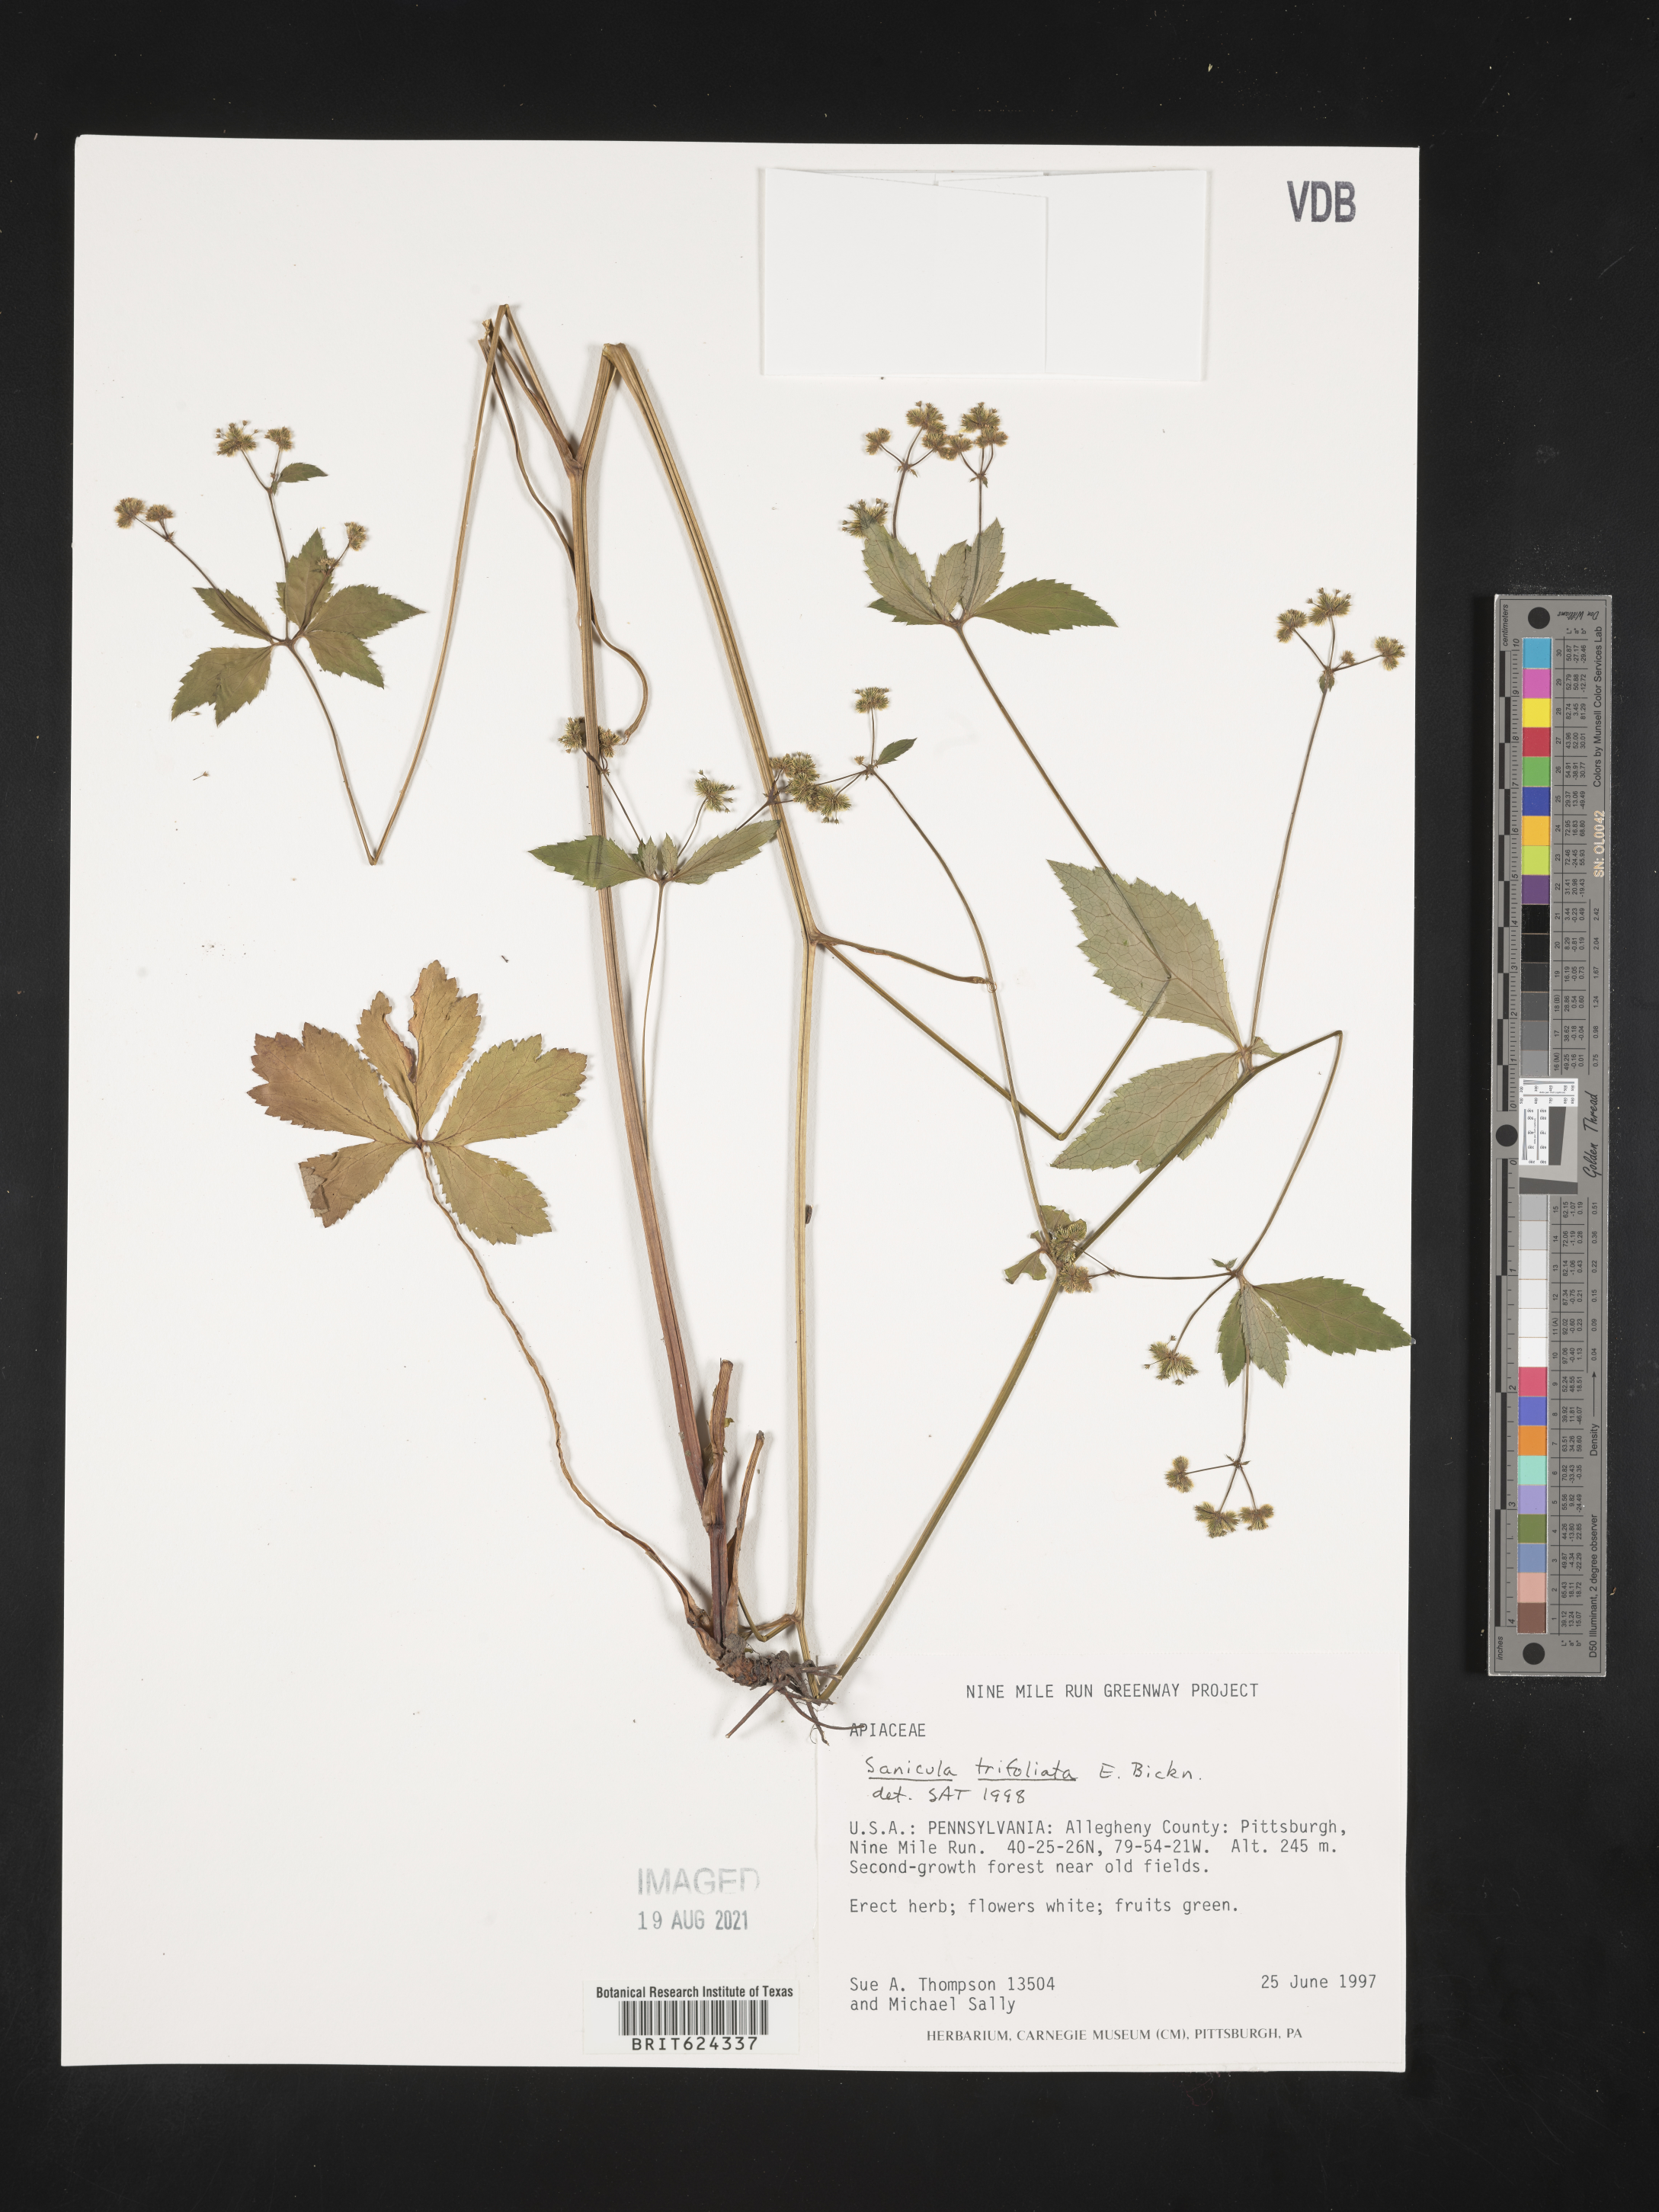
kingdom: Plantae
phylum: Tracheophyta
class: Magnoliopsida
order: Apiales
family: Apiaceae
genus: Sanicula
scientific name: Sanicula trifoliata
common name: Beaked sanicle
